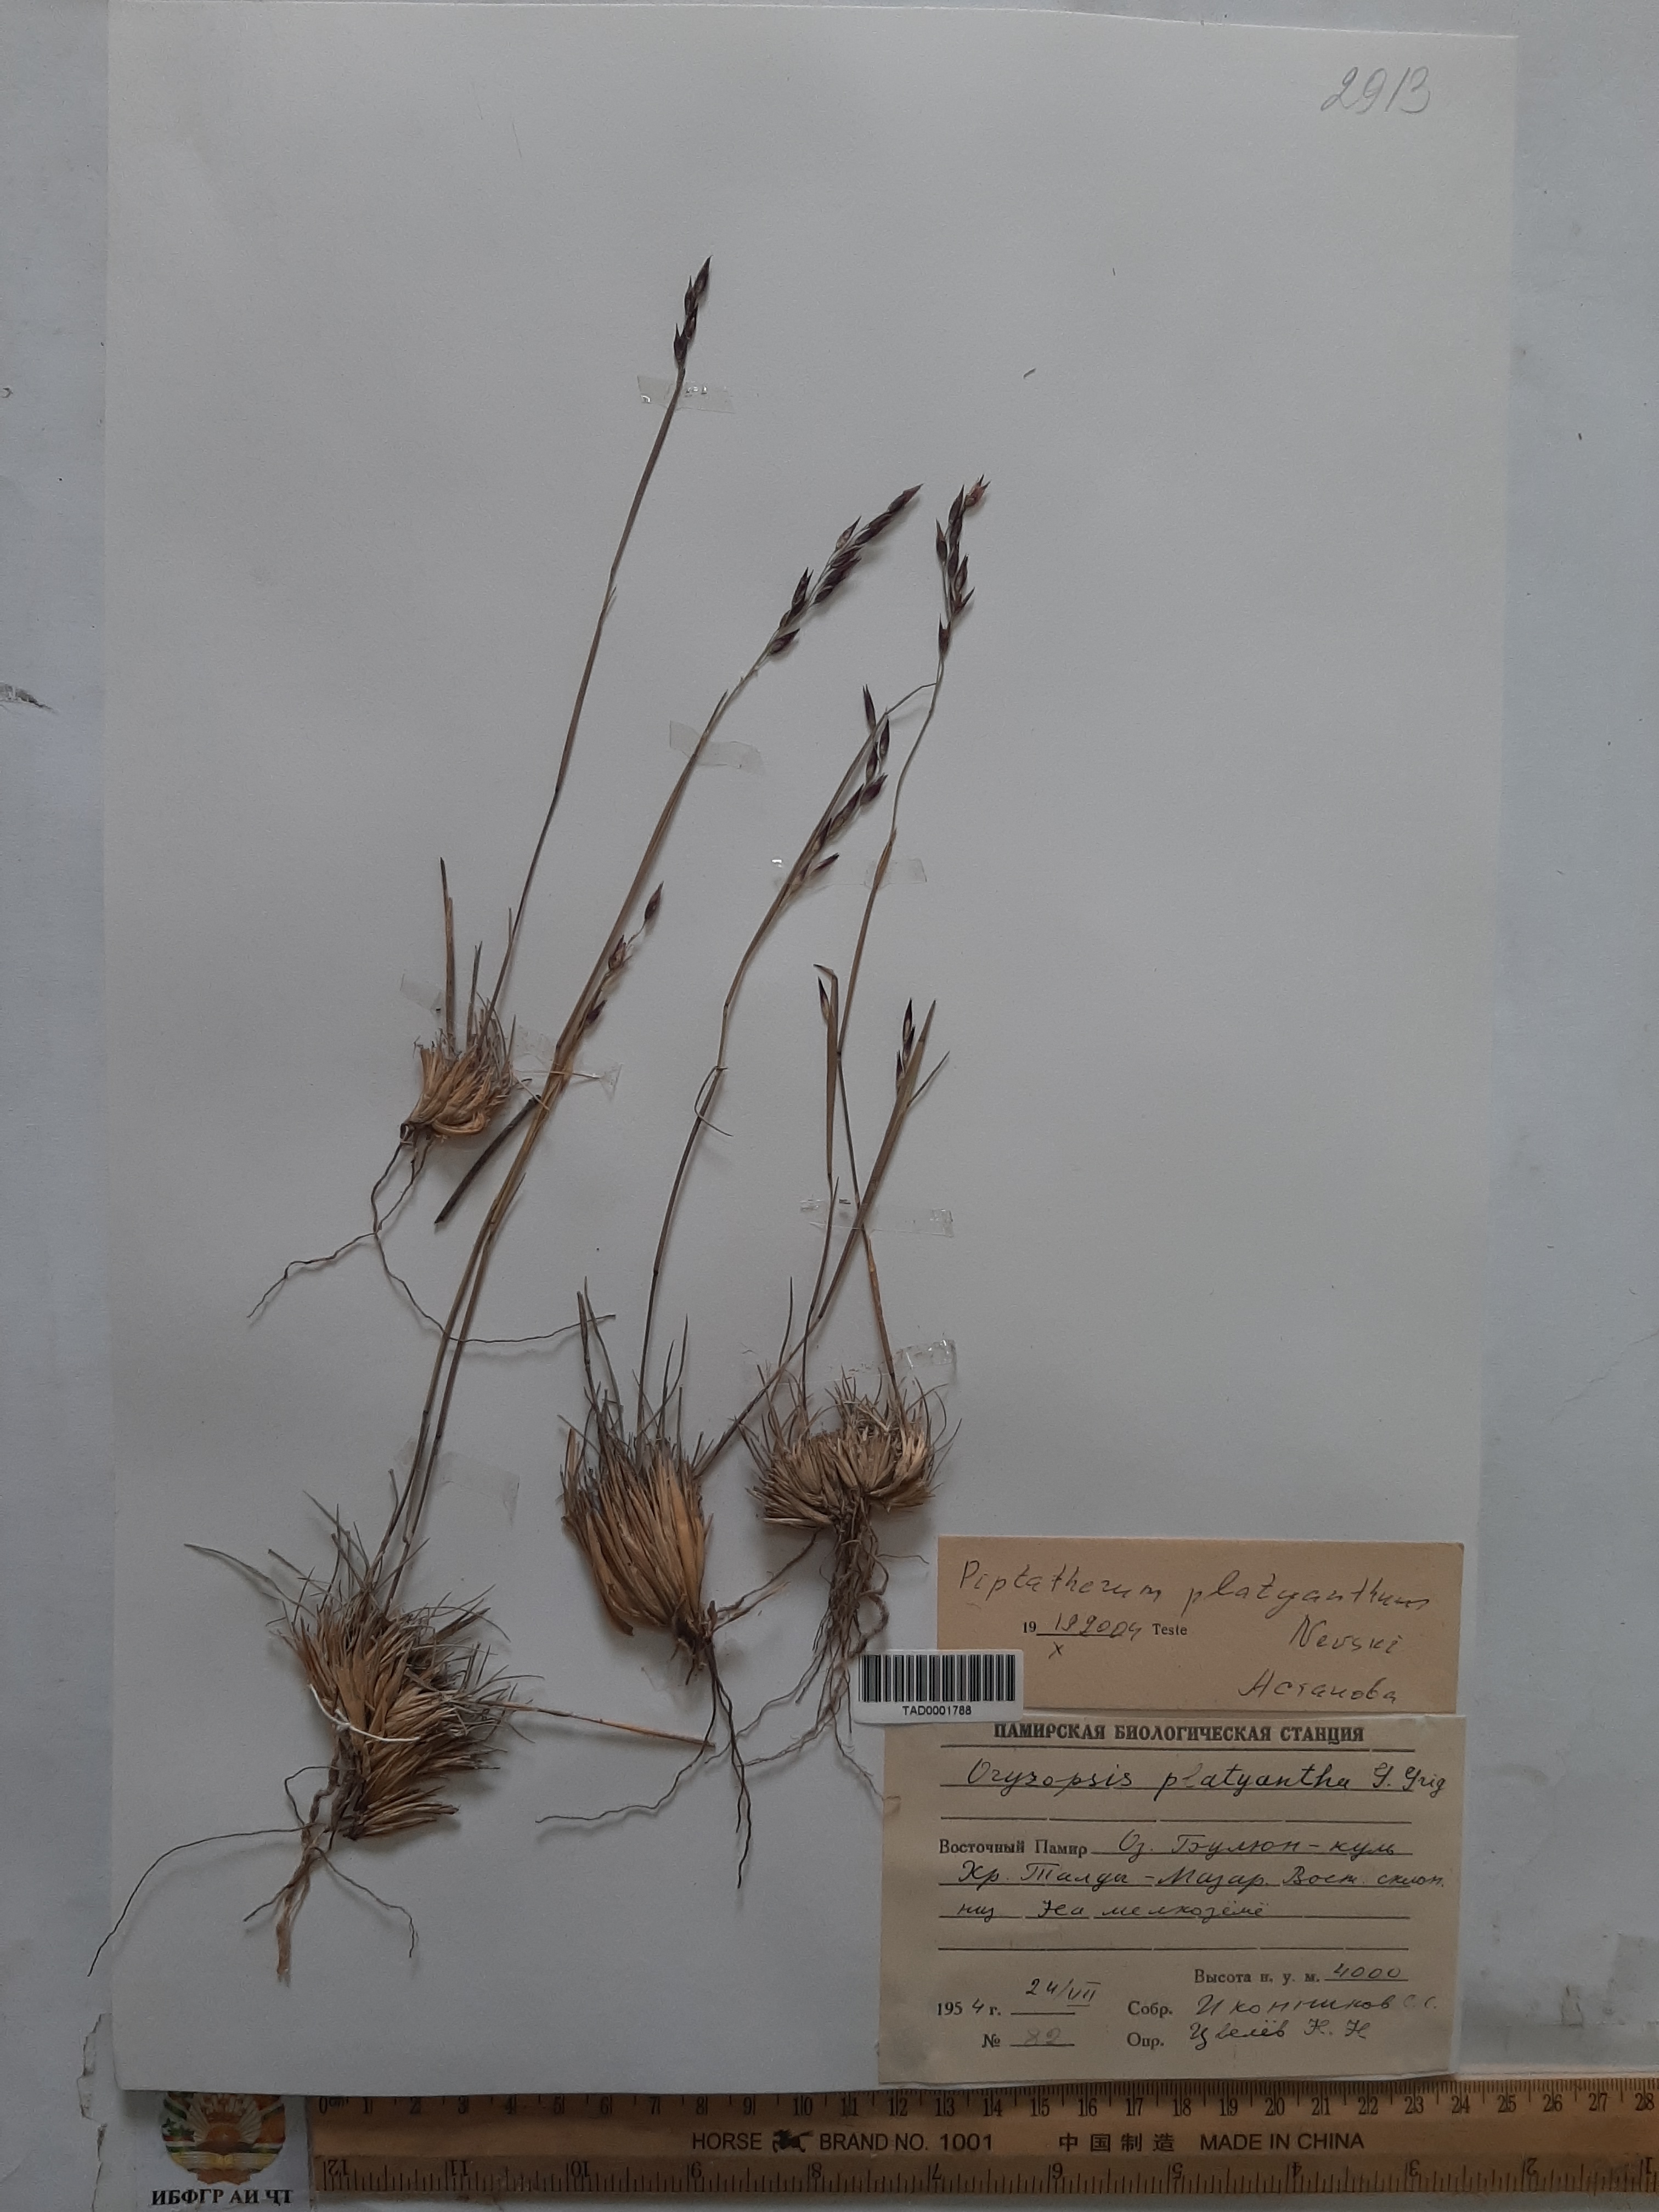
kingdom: Plantae
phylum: Tracheophyta
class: Liliopsida
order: Poales
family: Poaceae
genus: Piptatherum
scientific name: Piptatherum platyanthum
